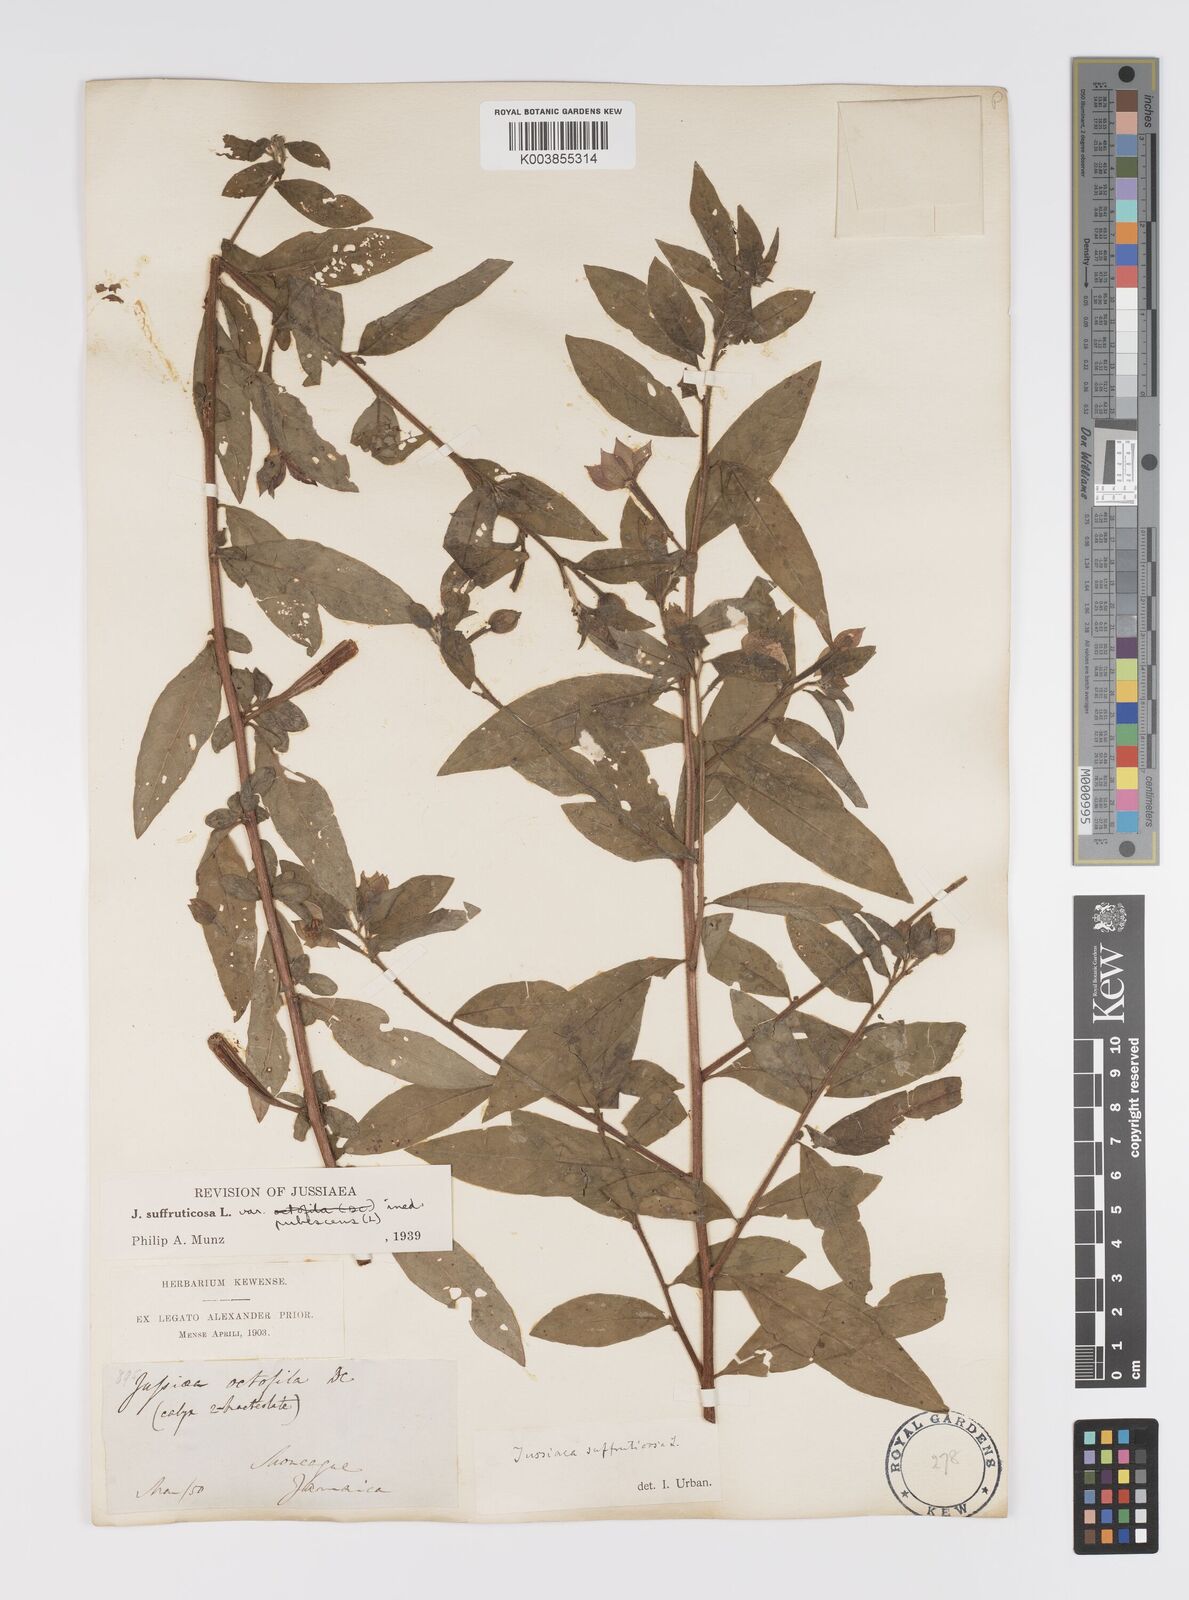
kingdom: Plantae
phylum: Tracheophyta
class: Magnoliopsida
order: Myrtales
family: Onagraceae
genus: Ludwigia
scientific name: Ludwigia octovalvis
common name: Water-primrose
